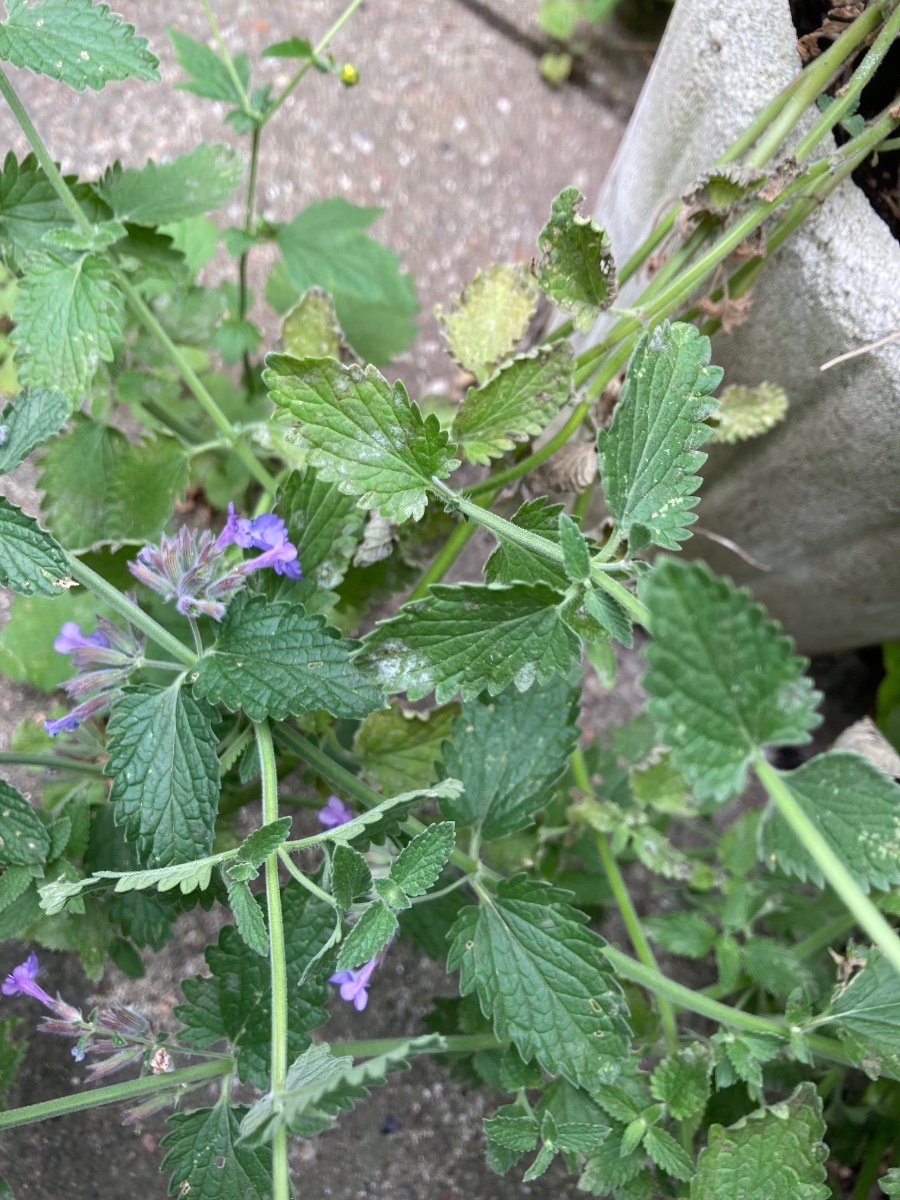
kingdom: Fungi
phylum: Ascomycota
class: Leotiomycetes
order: Helotiales
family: Erysiphaceae
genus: Neoerysiphe
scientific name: Neoerysiphe galeopsidis
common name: Mint mildew
